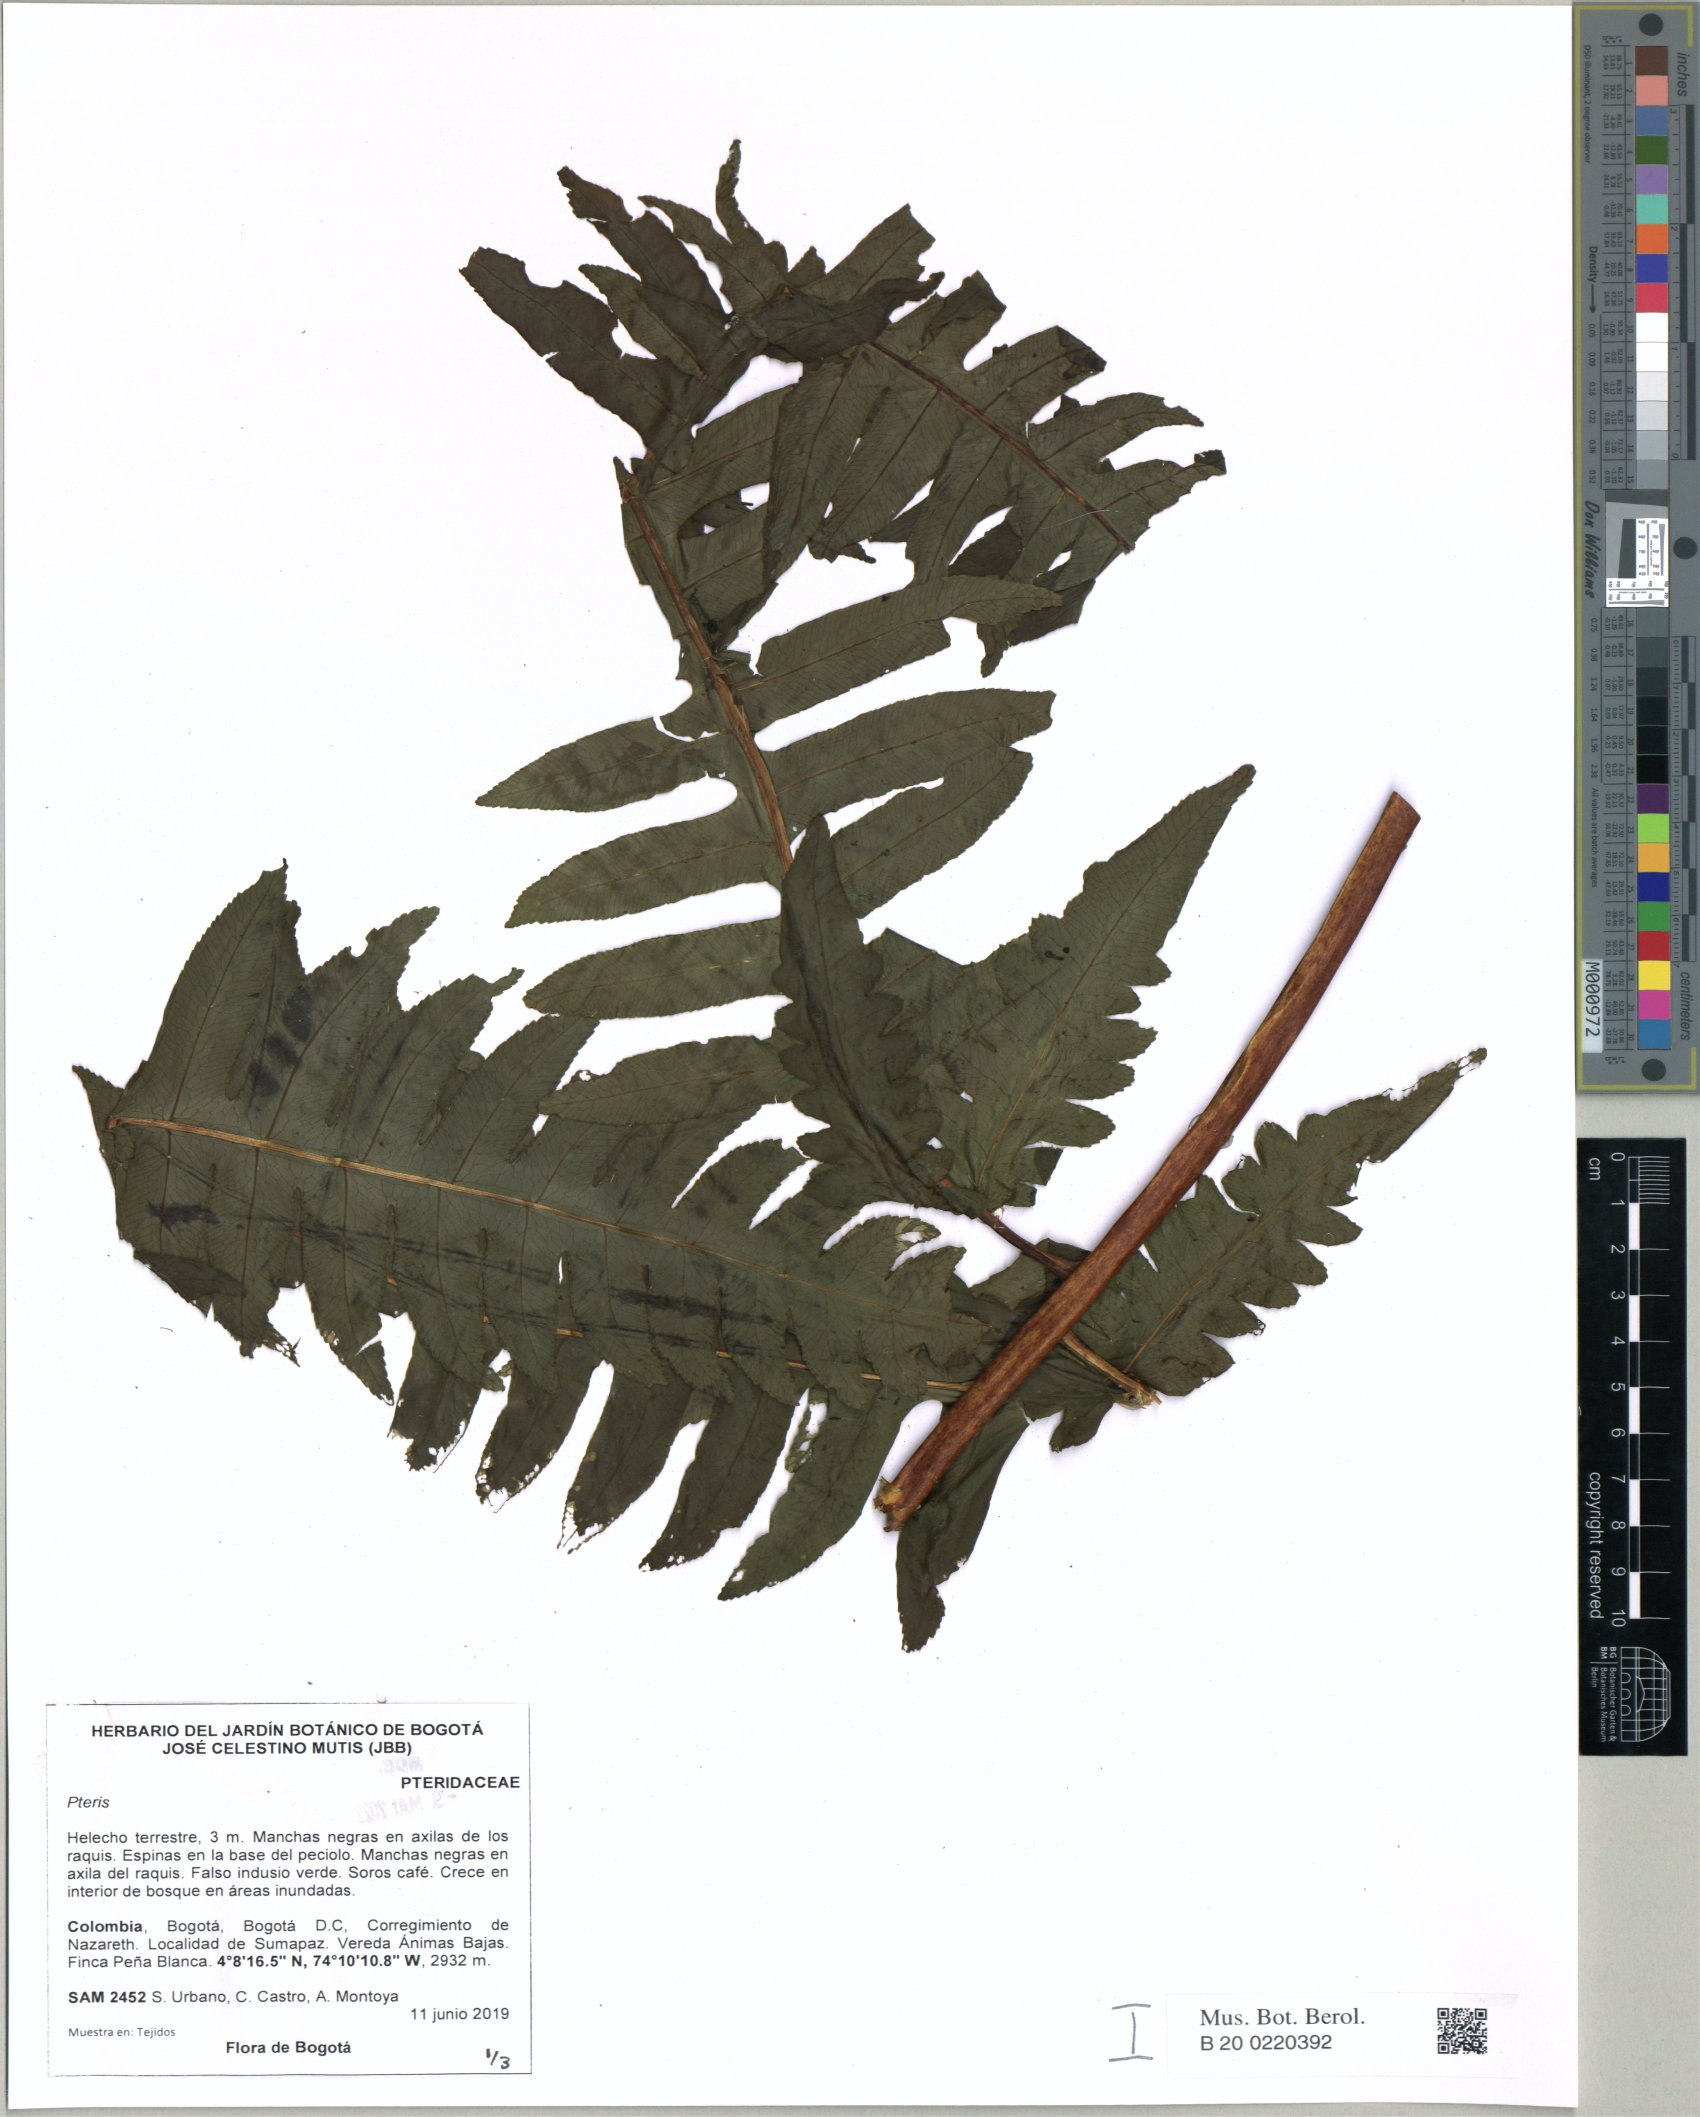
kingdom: Plantae
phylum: Tracheophyta
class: Polypodiopsida
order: Polypodiales
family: Pteridaceae
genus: Pteris
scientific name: Pteris
